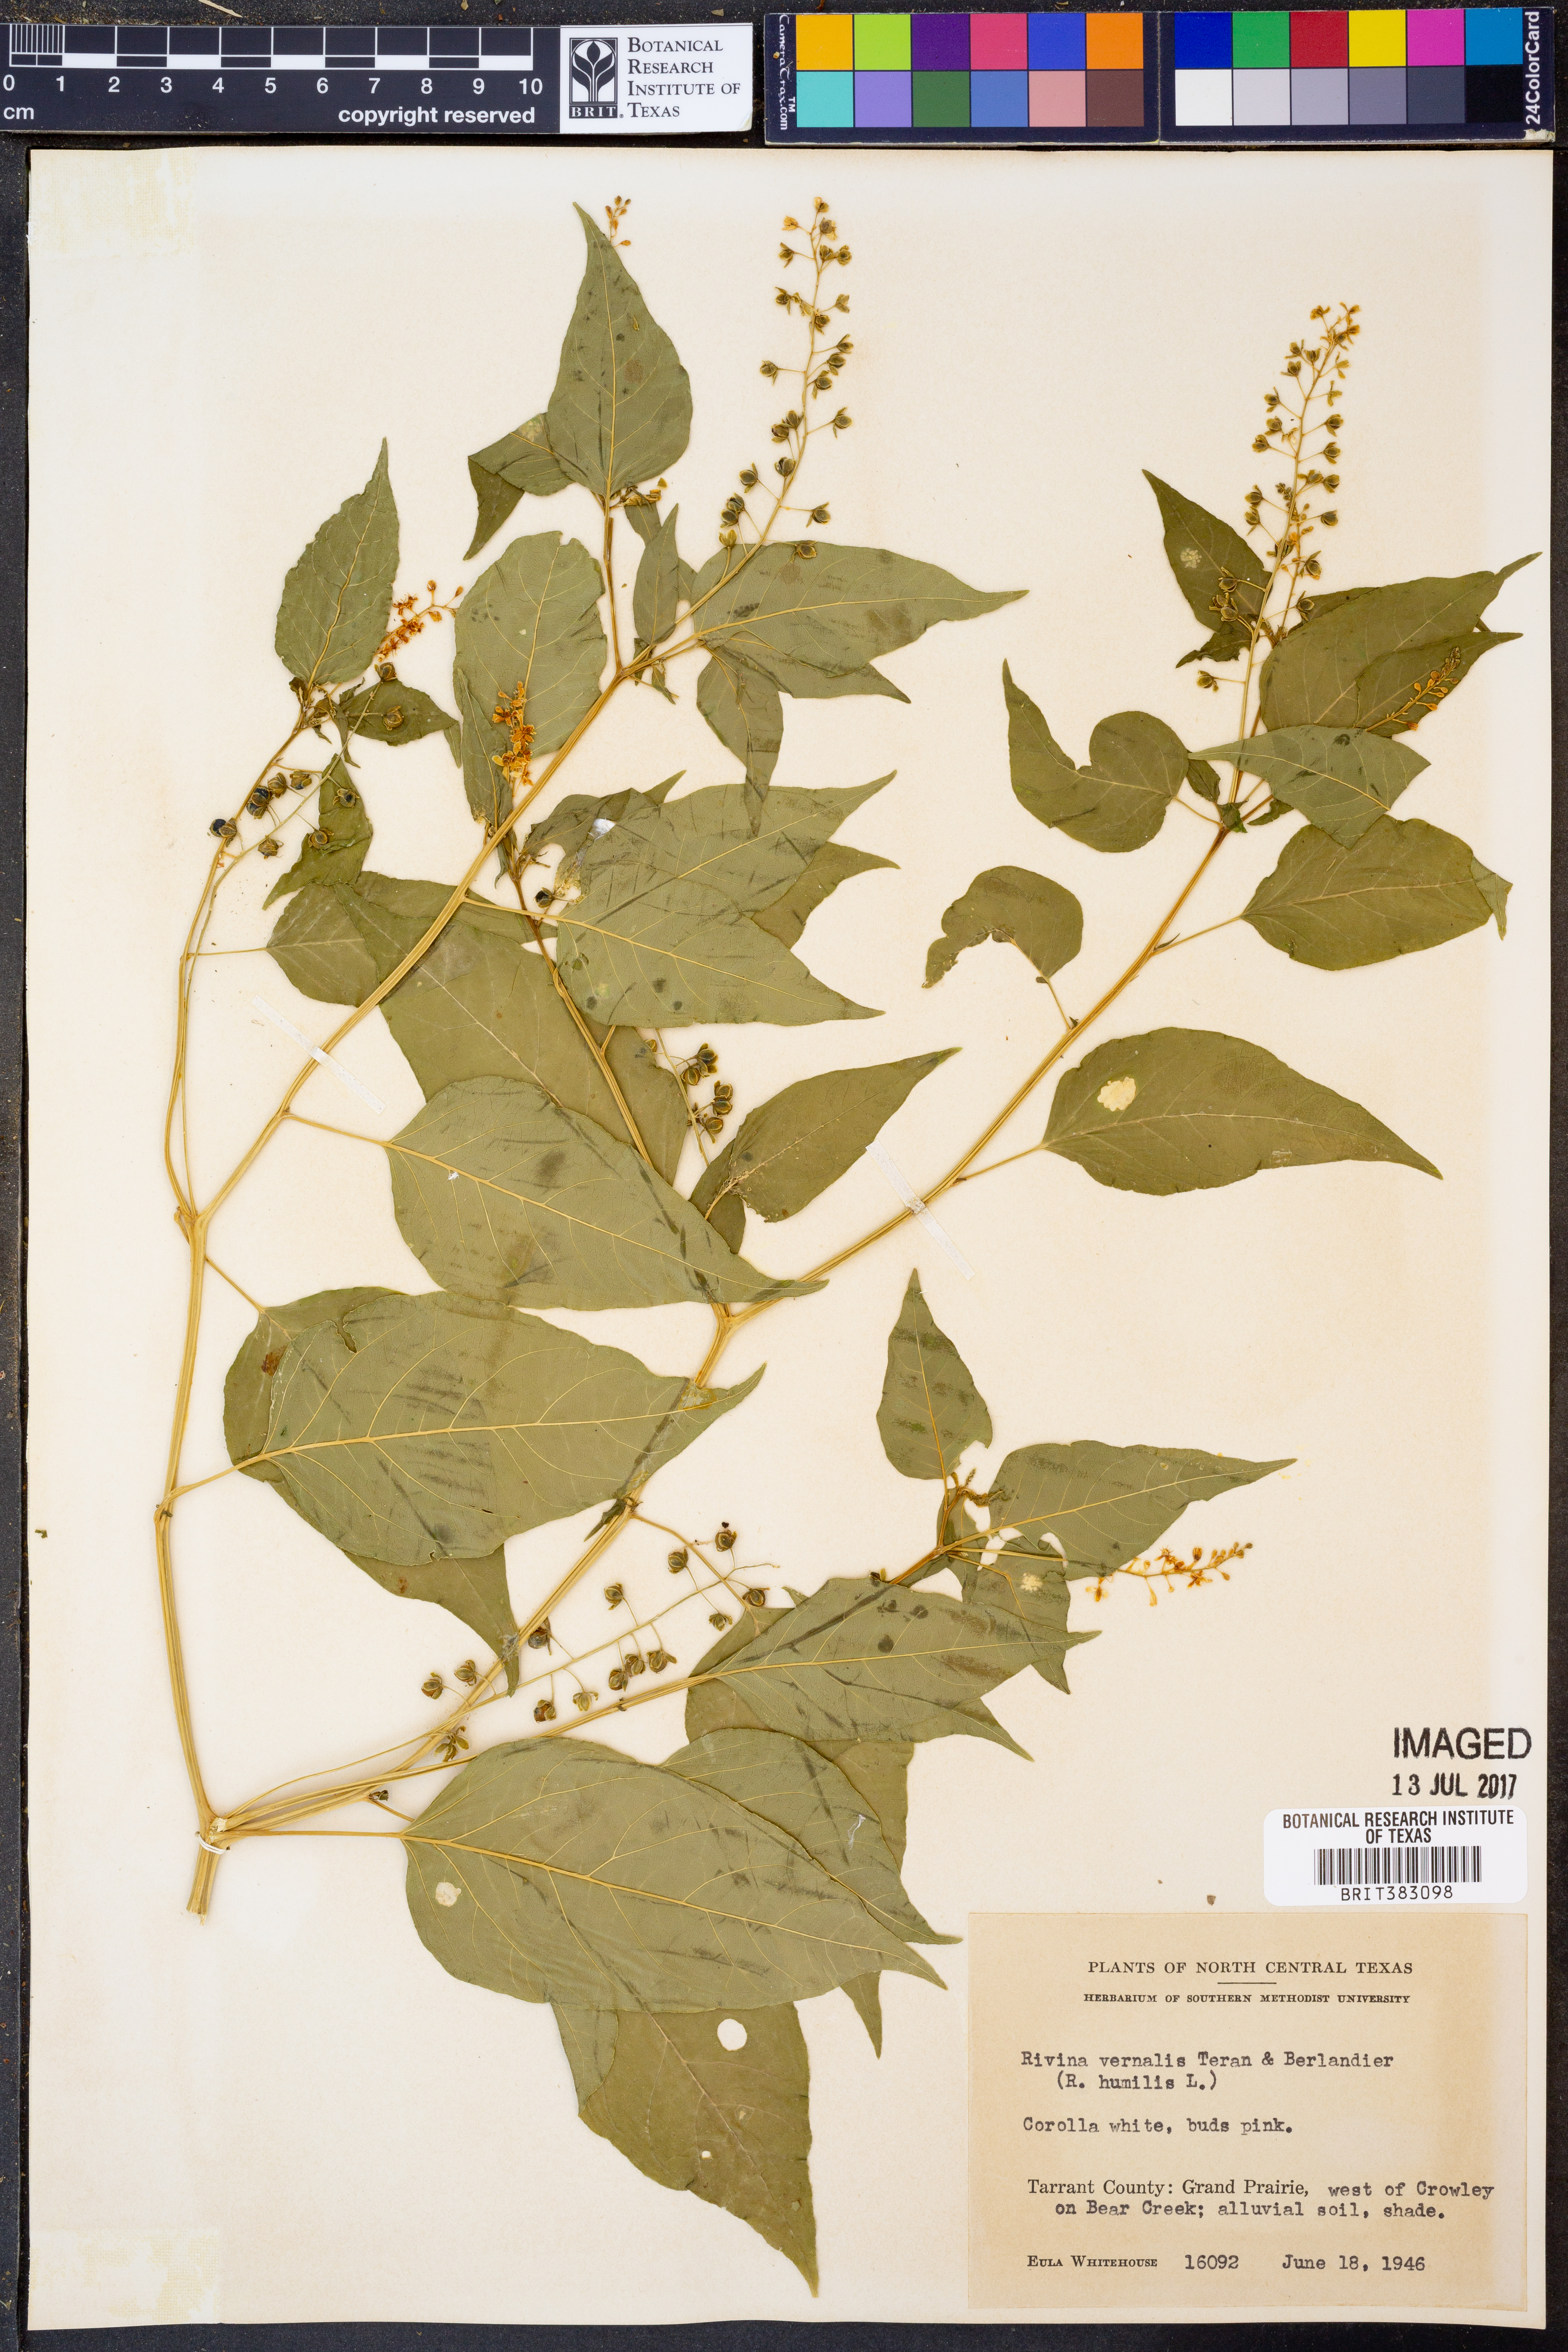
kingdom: Plantae
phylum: Tracheophyta
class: Magnoliopsida
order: Caryophyllales
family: Phytolaccaceae
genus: Rivina
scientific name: Rivina humilis
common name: Rougeplant
